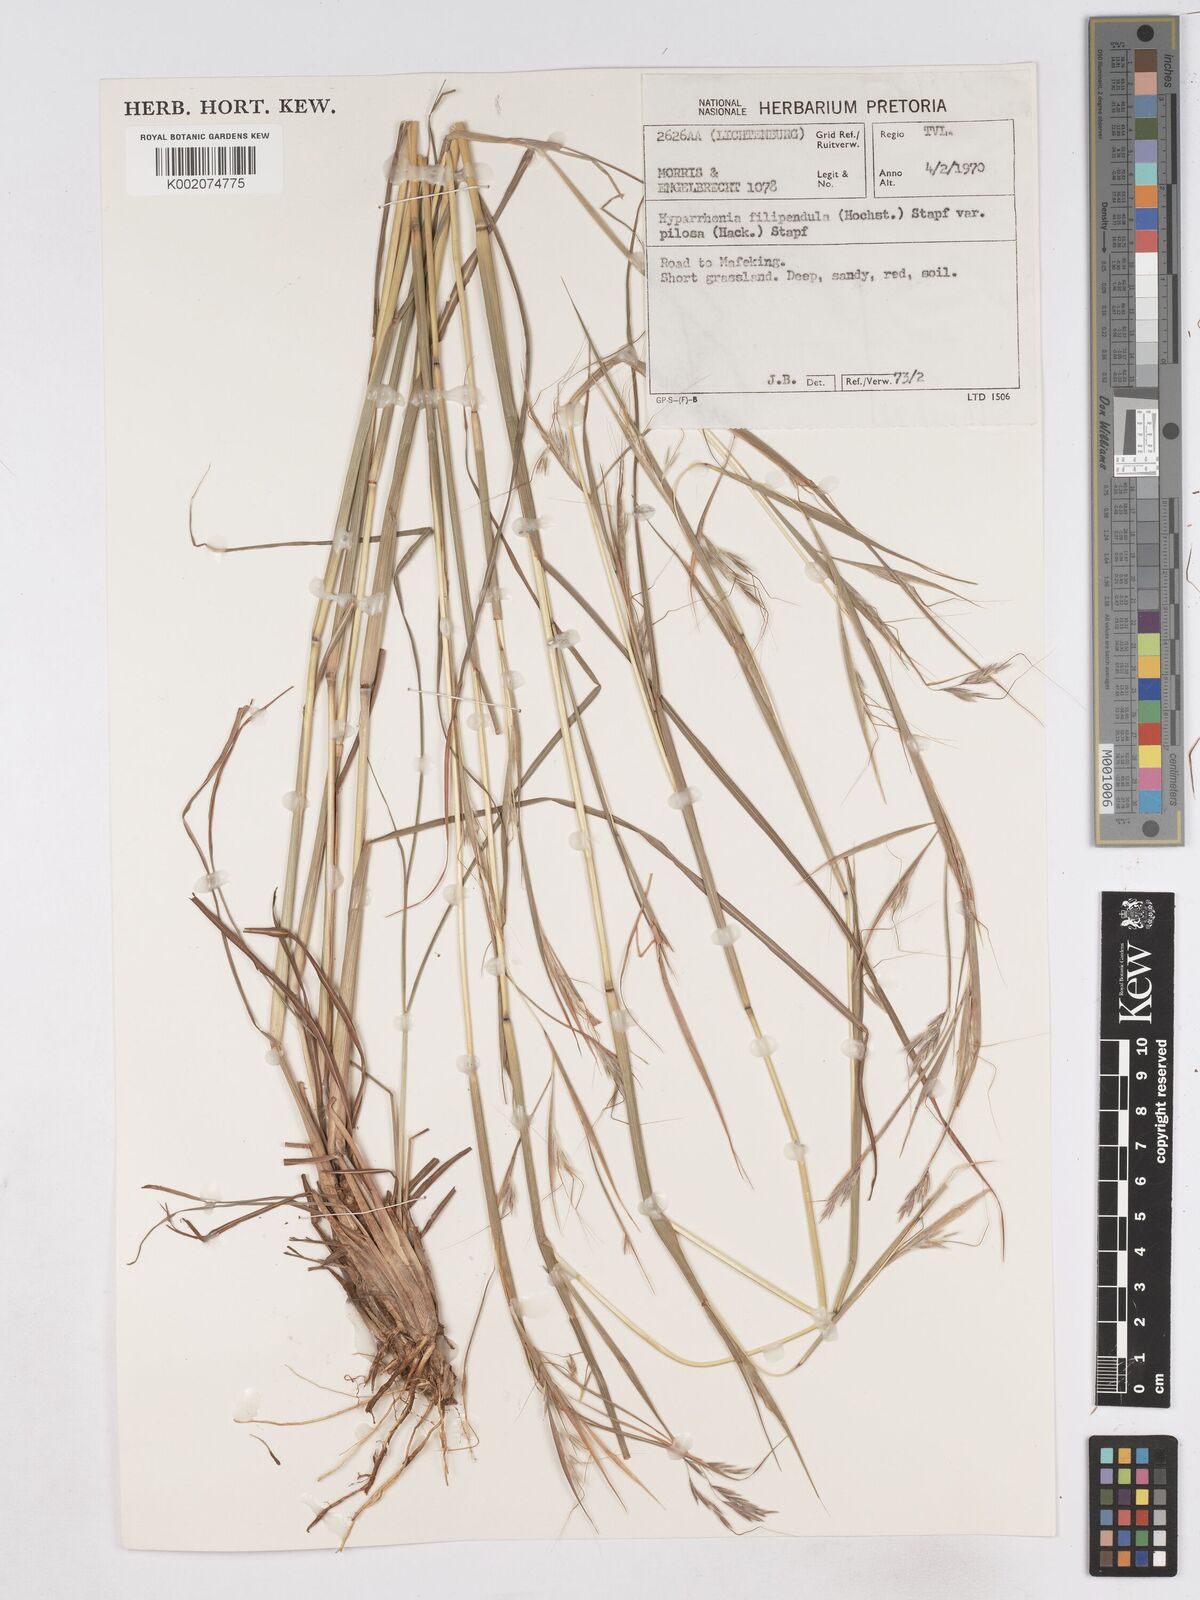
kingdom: Plantae
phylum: Tracheophyta
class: Liliopsida
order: Poales
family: Poaceae
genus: Hyparrhenia
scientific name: Hyparrhenia filipendula
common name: Tambookie grass
